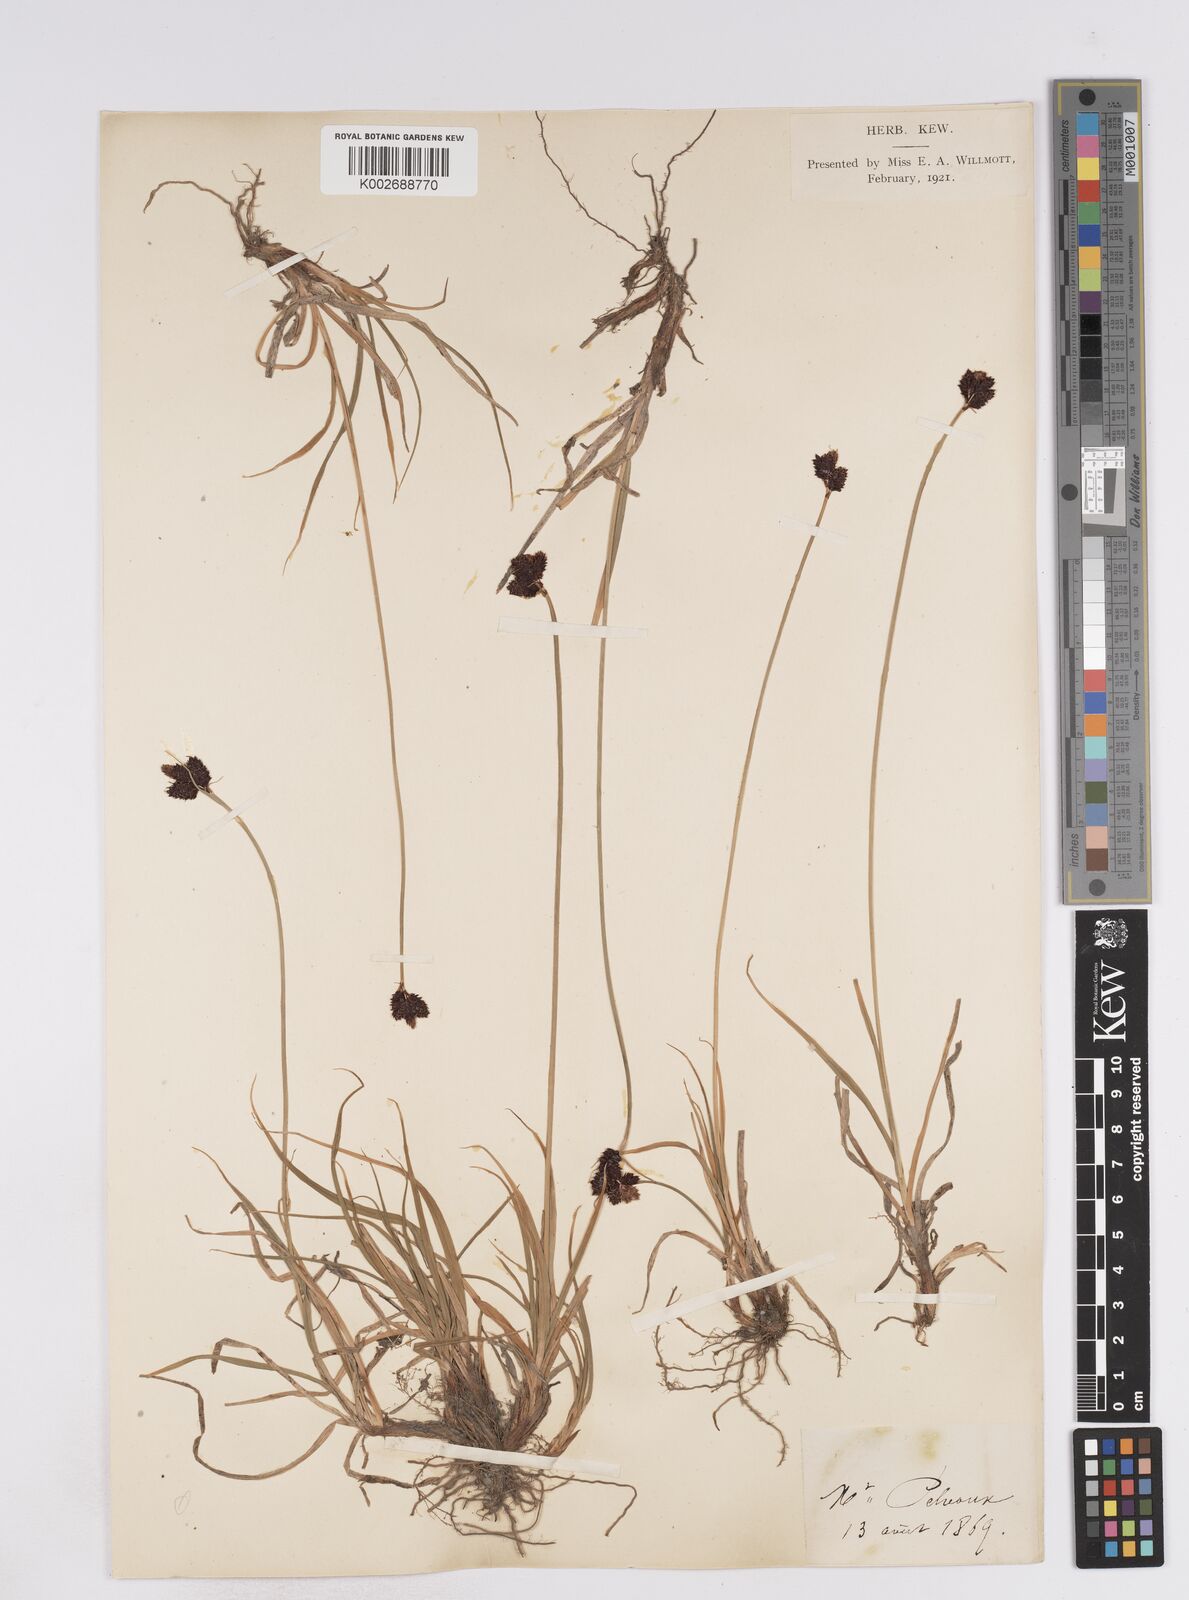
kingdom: Plantae
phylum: Tracheophyta
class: Liliopsida
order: Poales
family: Cyperaceae
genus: Carex
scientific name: Carex parviflora
